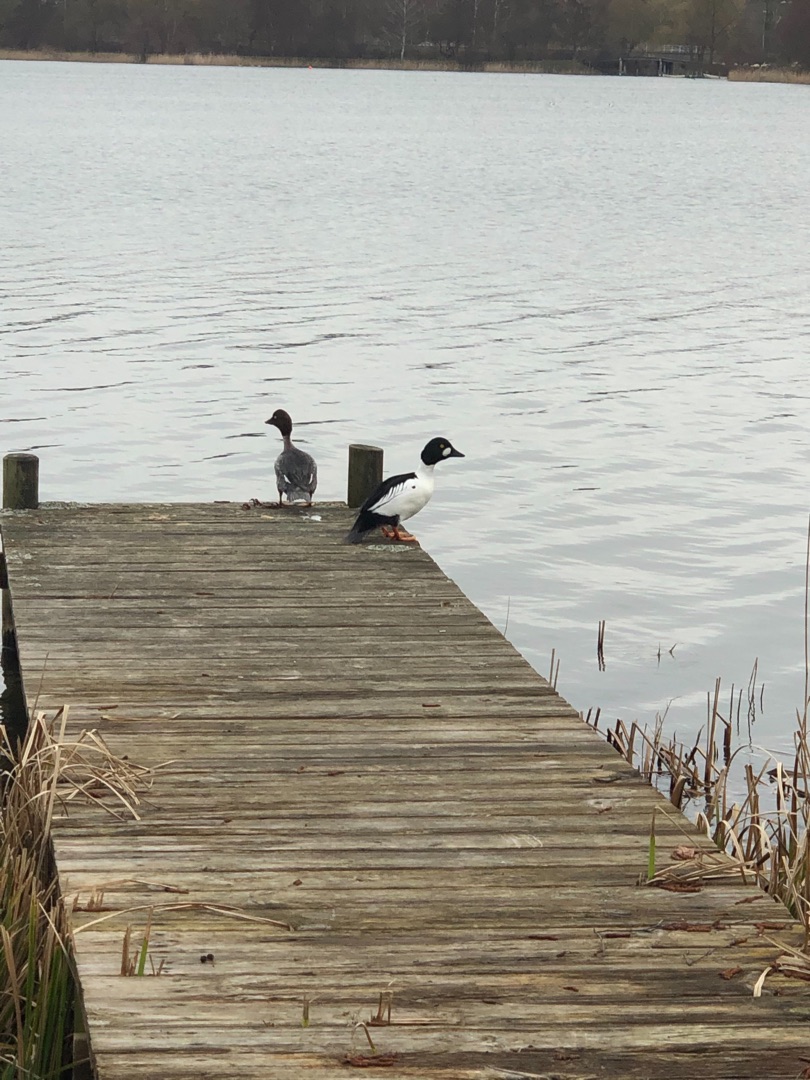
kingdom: Animalia
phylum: Chordata
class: Aves
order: Anseriformes
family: Anatidae
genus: Bucephala
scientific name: Bucephala clangula
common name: Hvinand
